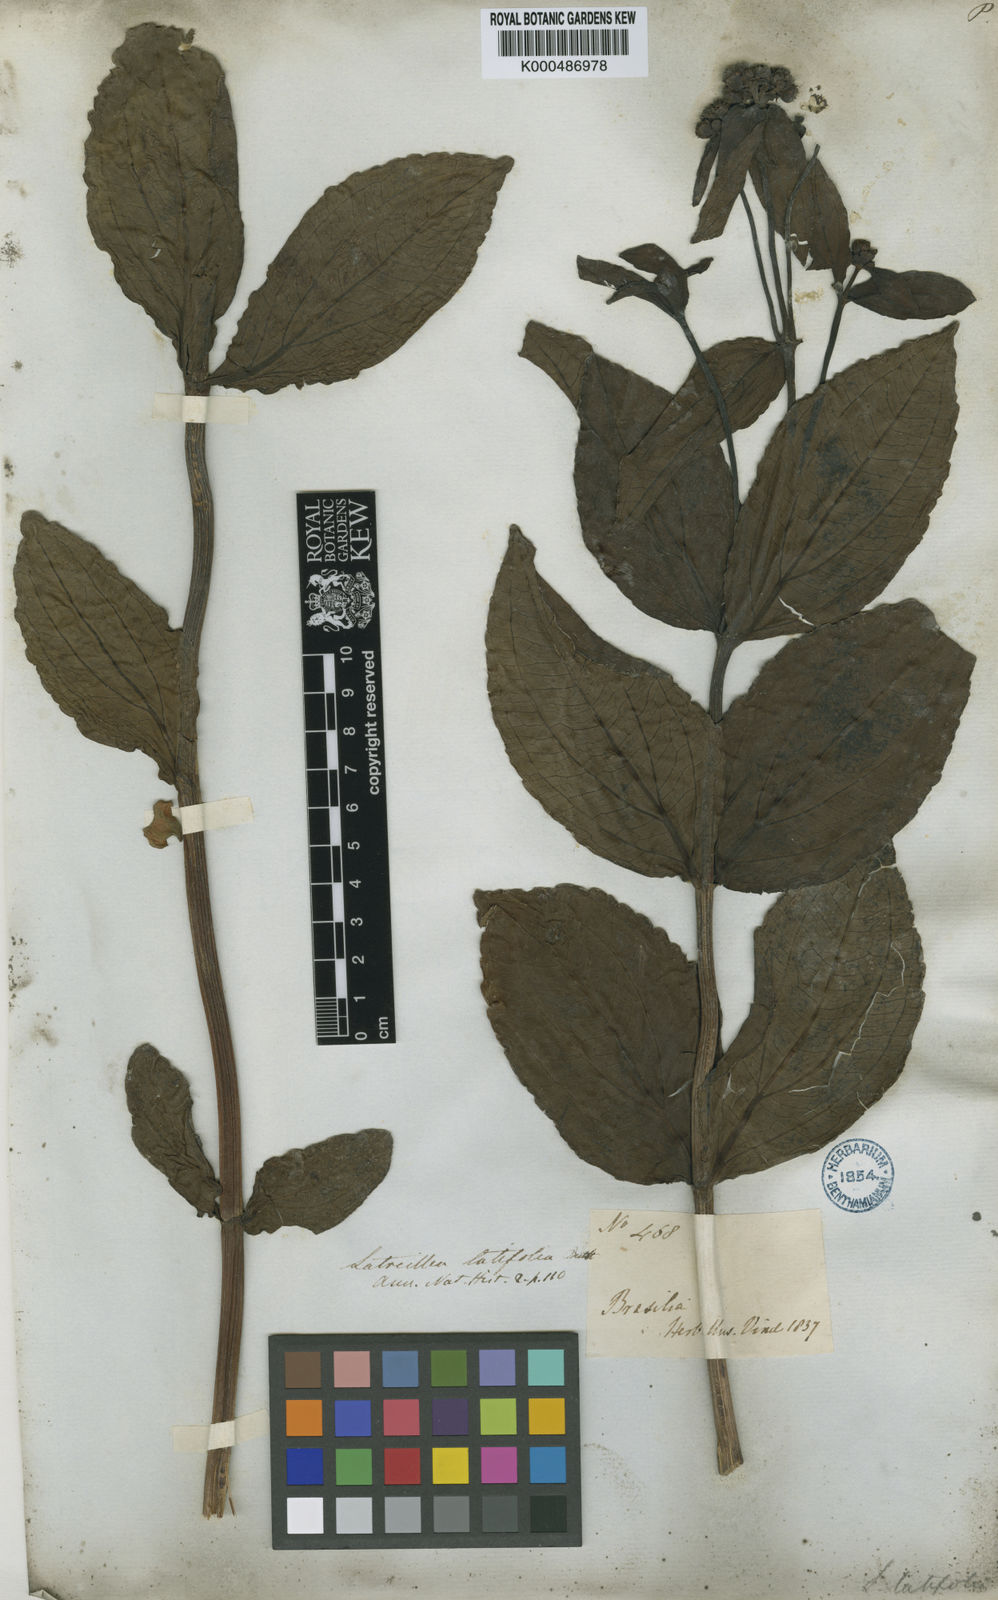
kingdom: Plantae
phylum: Tracheophyta
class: Magnoliopsida
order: Asterales
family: Asteraceae
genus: Ichthyothere
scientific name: Ichthyothere terminalis
